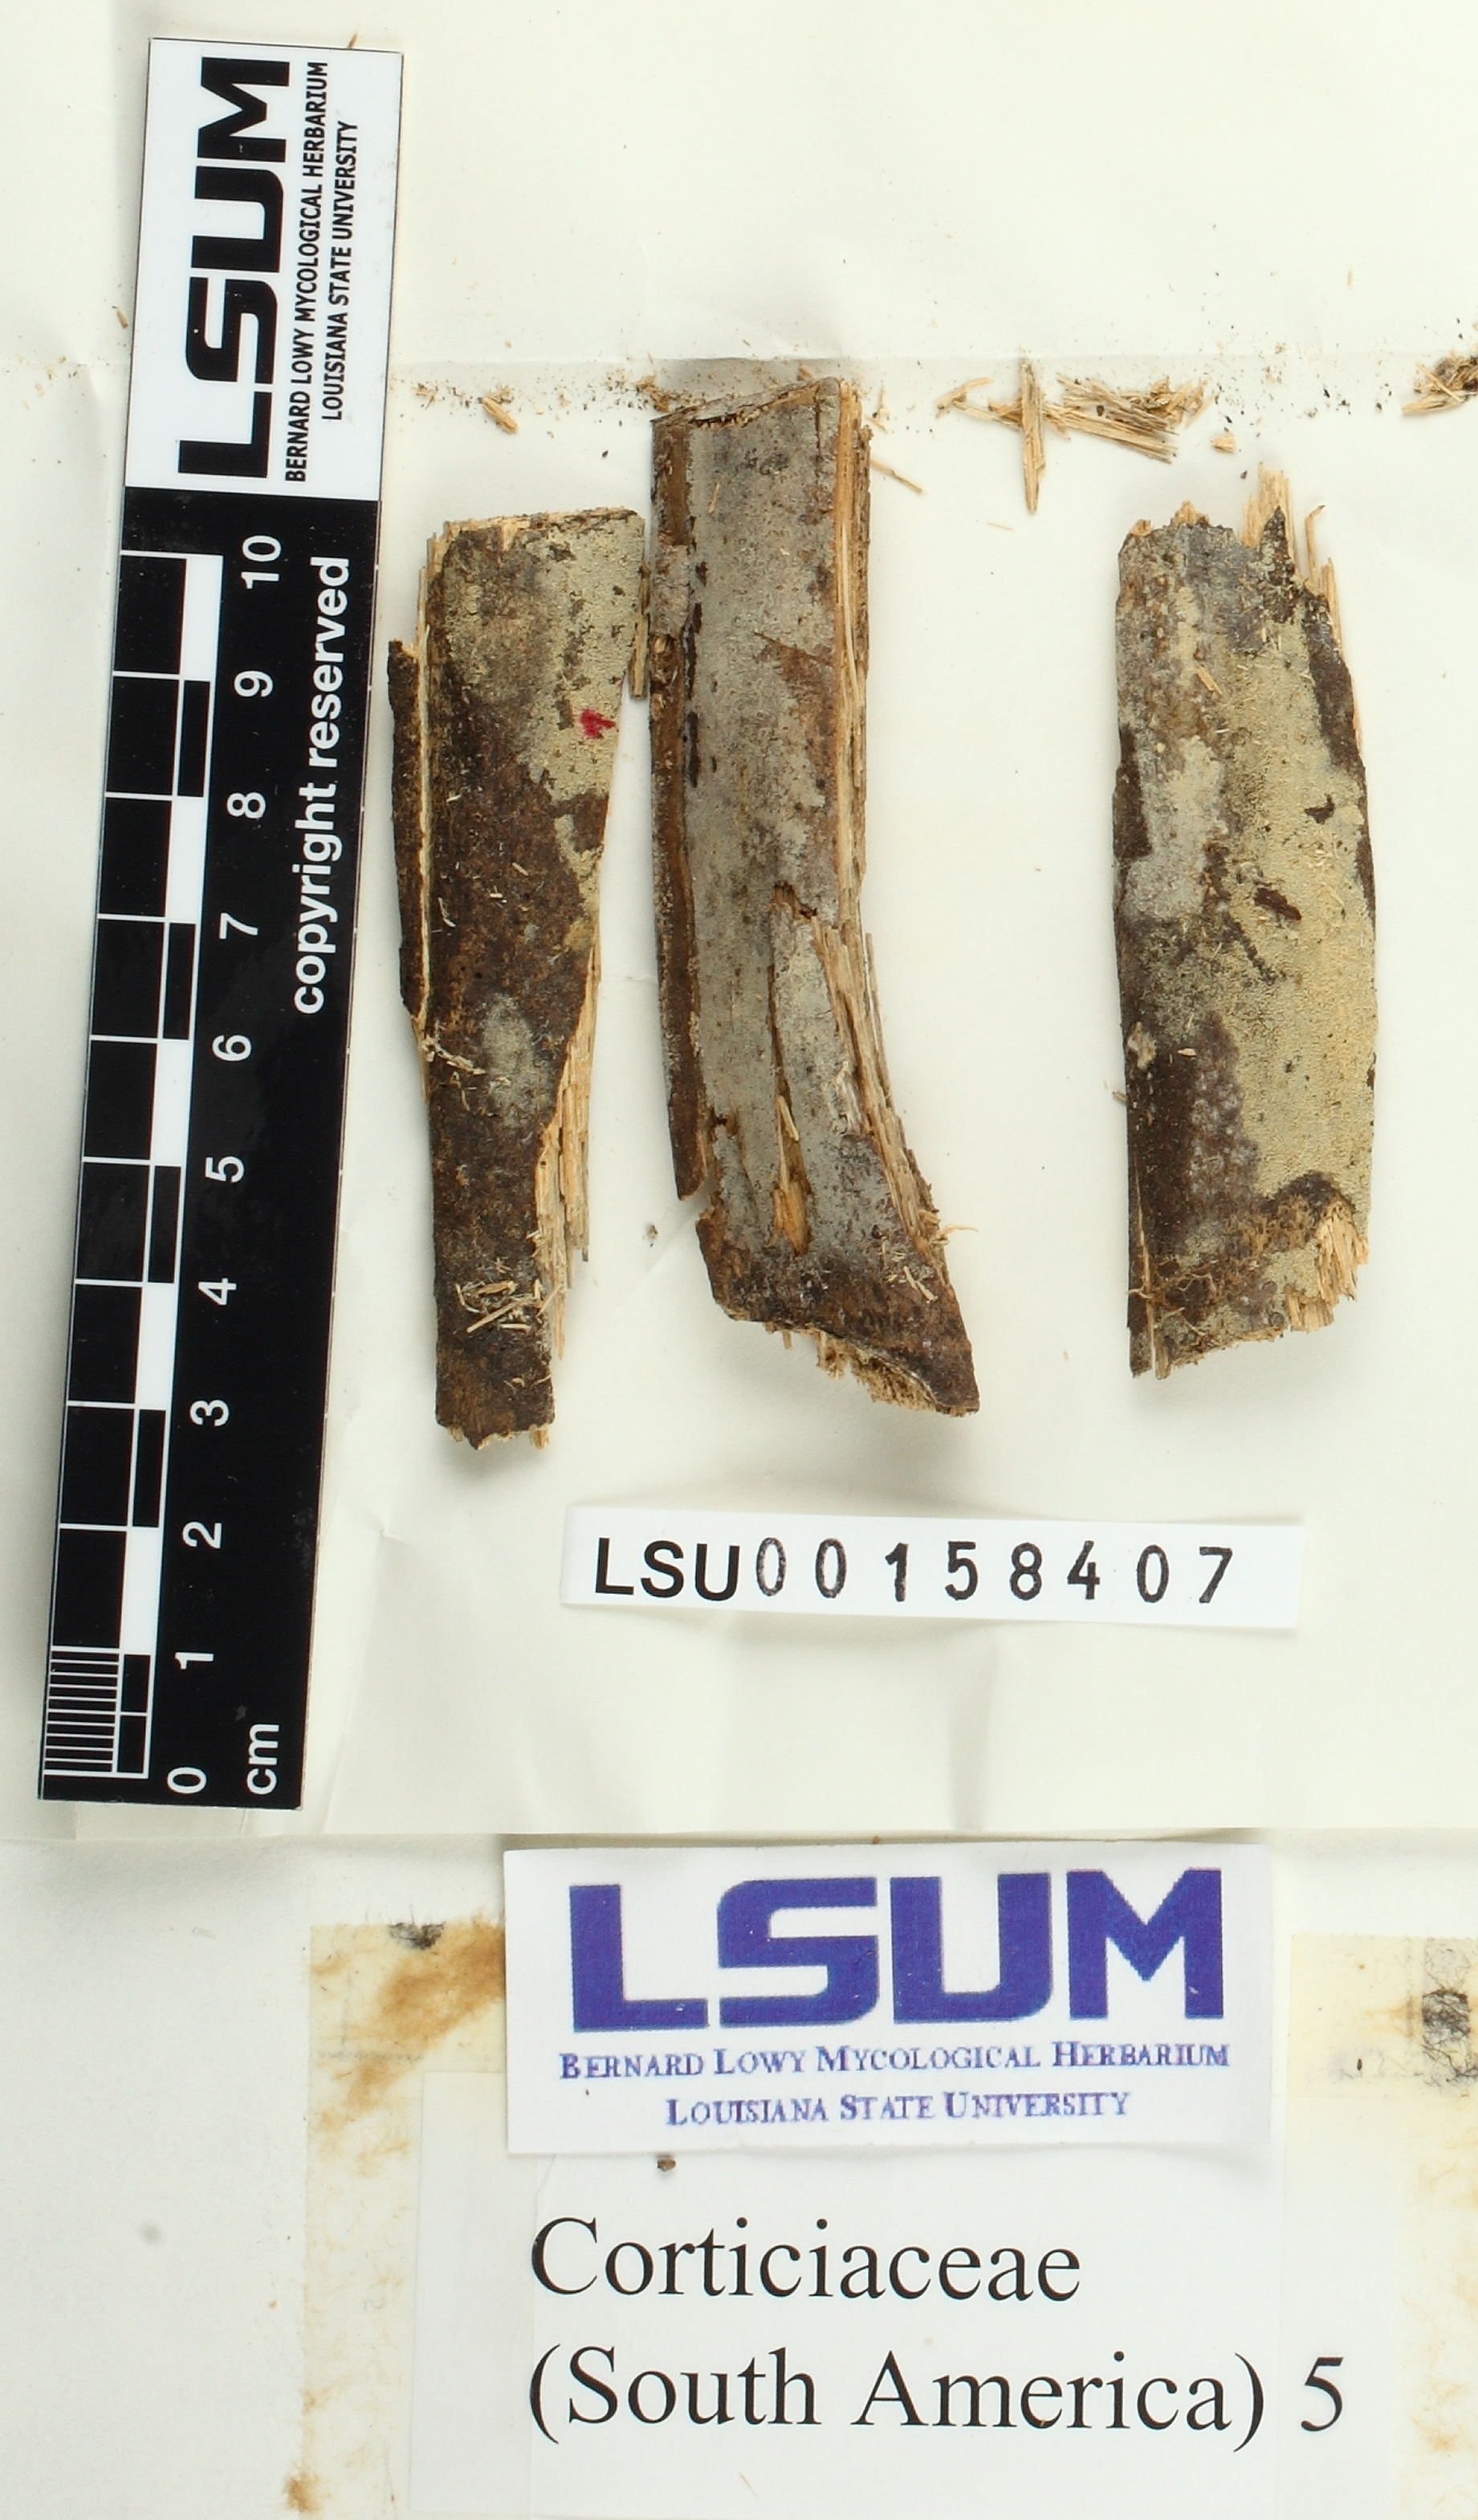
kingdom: Fungi
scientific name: Fungi
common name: Fungi
